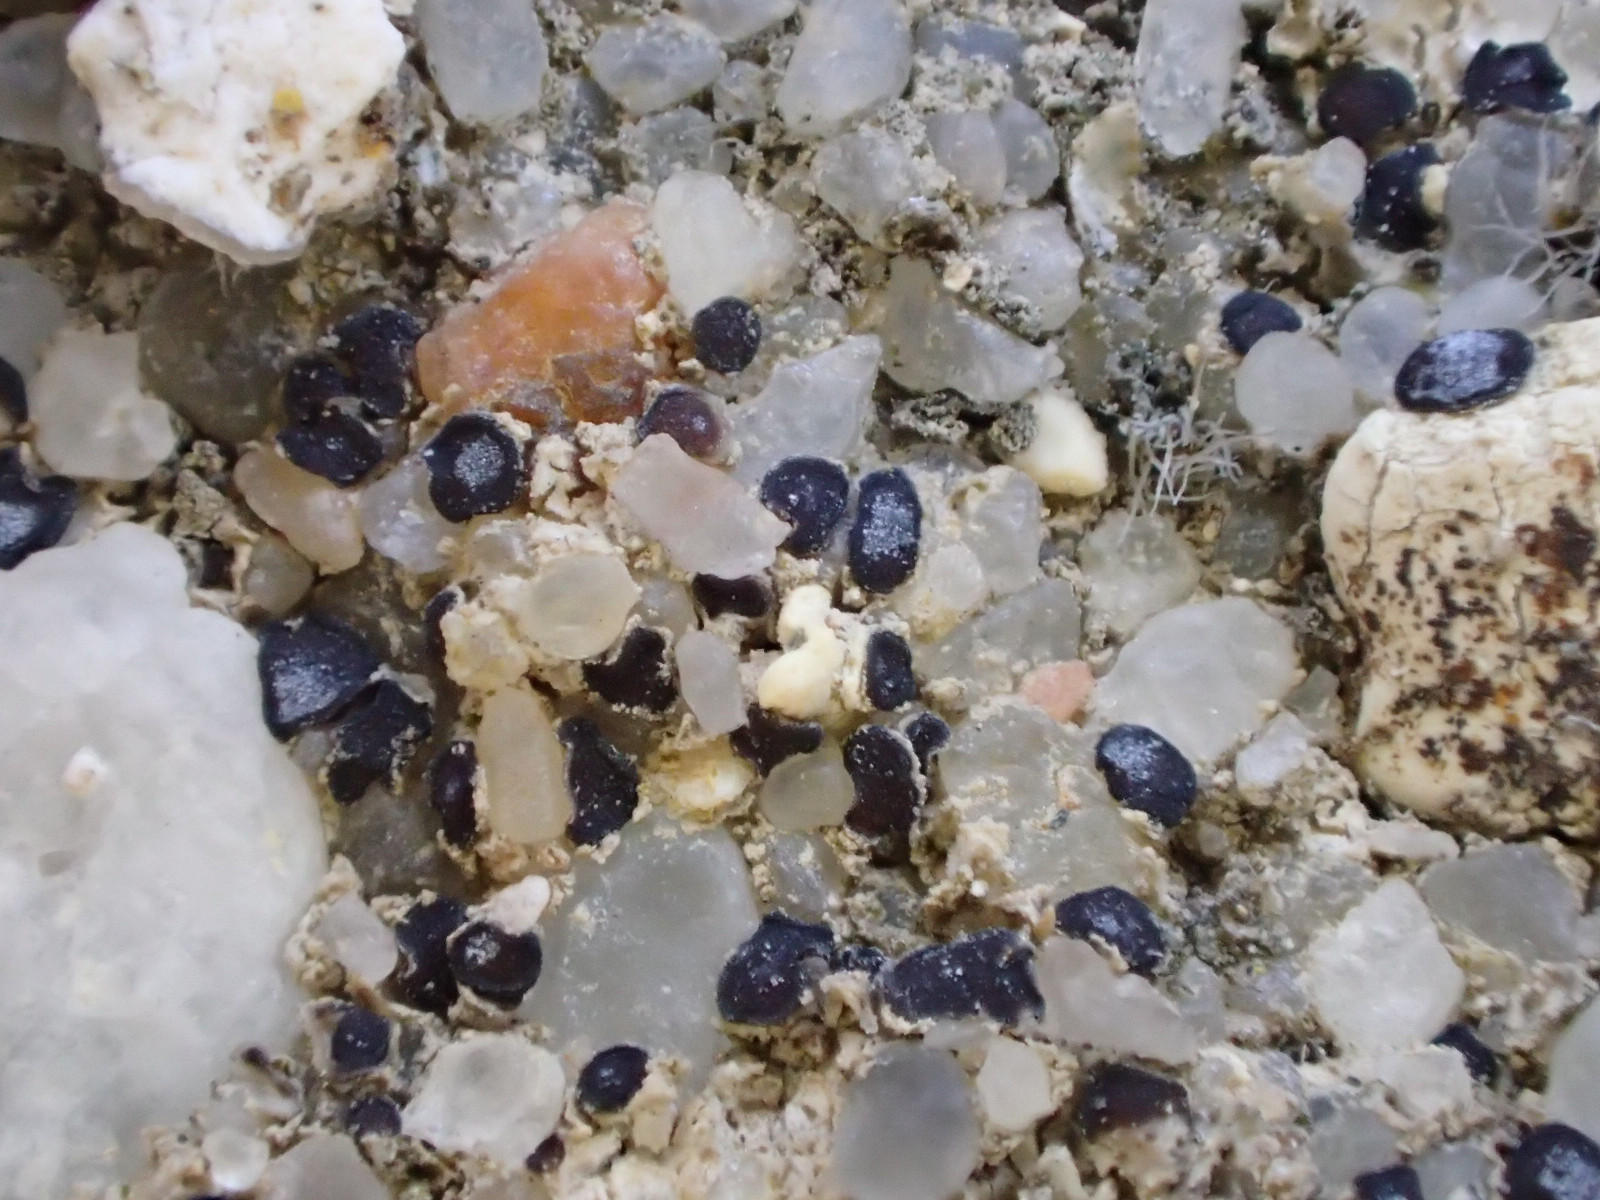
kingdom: Fungi
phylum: Ascomycota
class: Lecanoromycetes
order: Acarosporales
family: Acarosporaceae
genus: Sarcogyne
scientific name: Sarcogyne regularis
